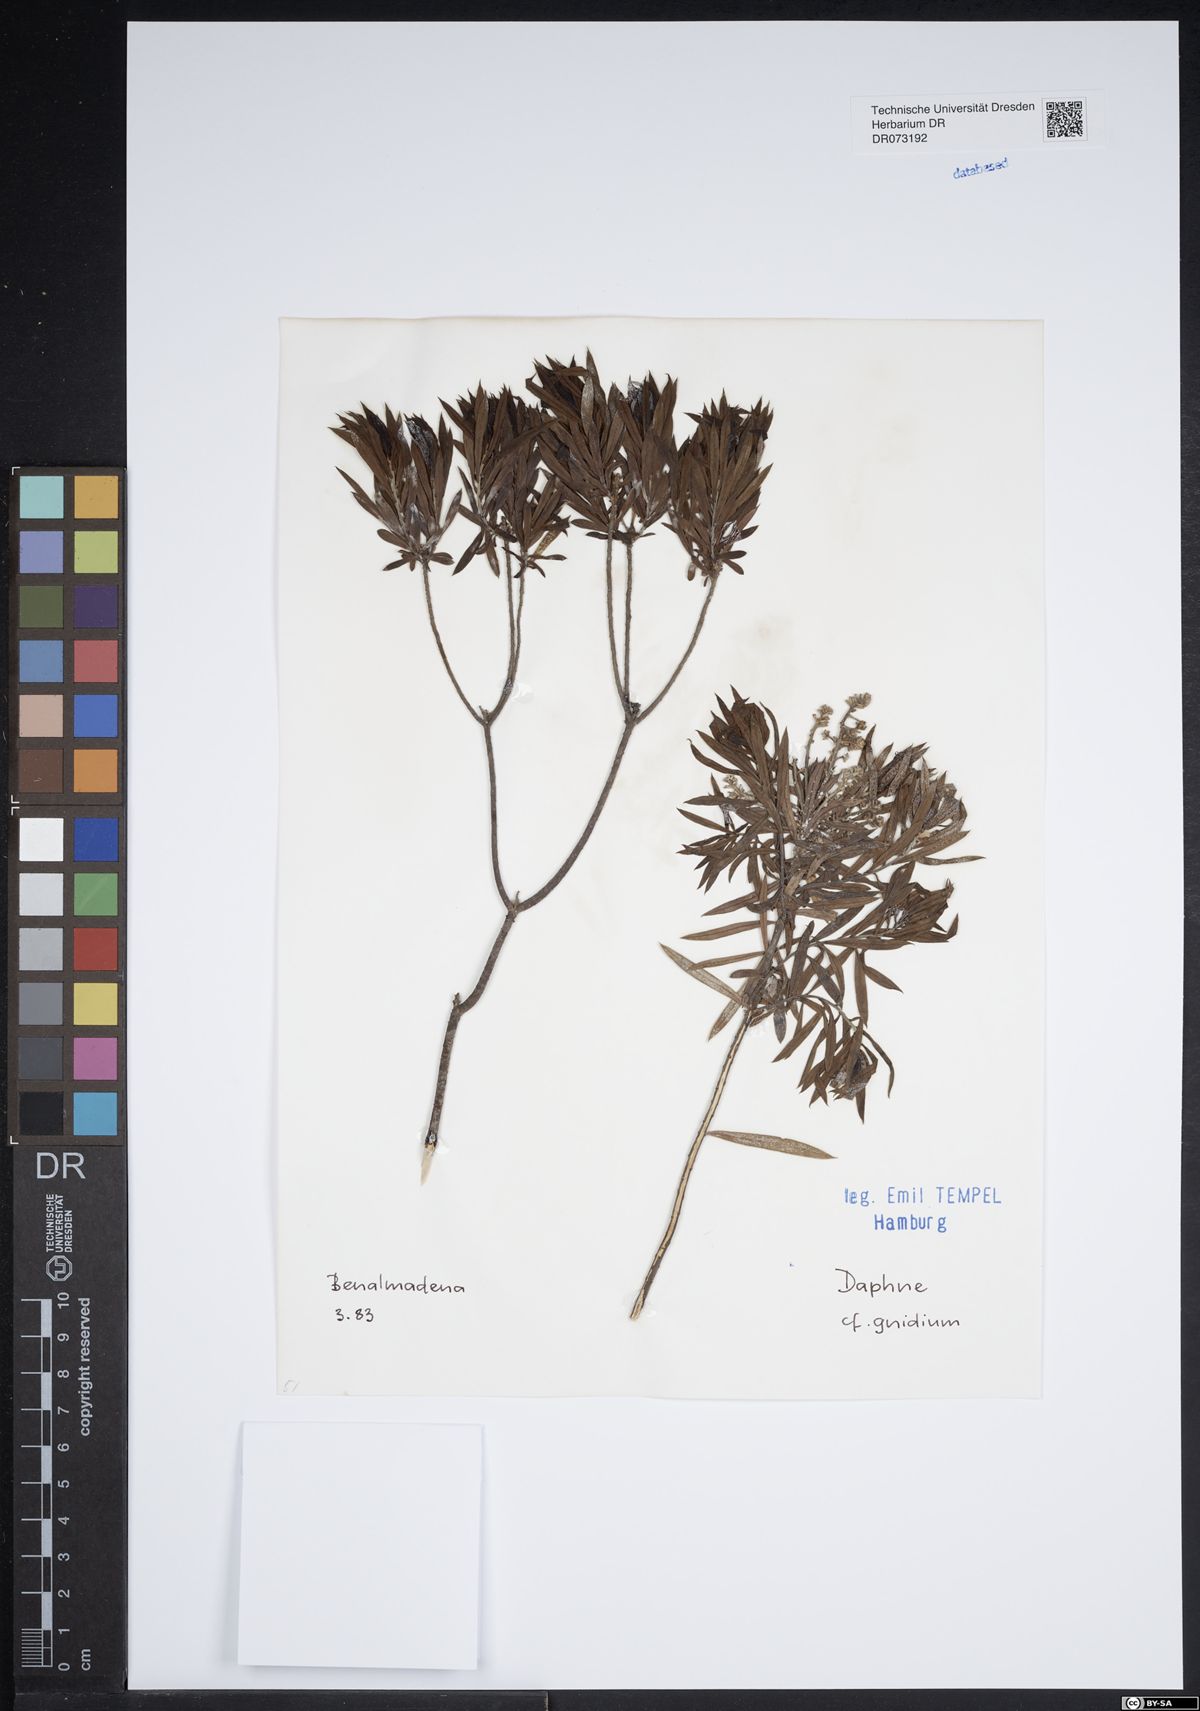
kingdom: Plantae
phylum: Tracheophyta
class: Magnoliopsida
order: Malvales
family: Thymelaeaceae
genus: Daphne
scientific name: Daphne gnidium
